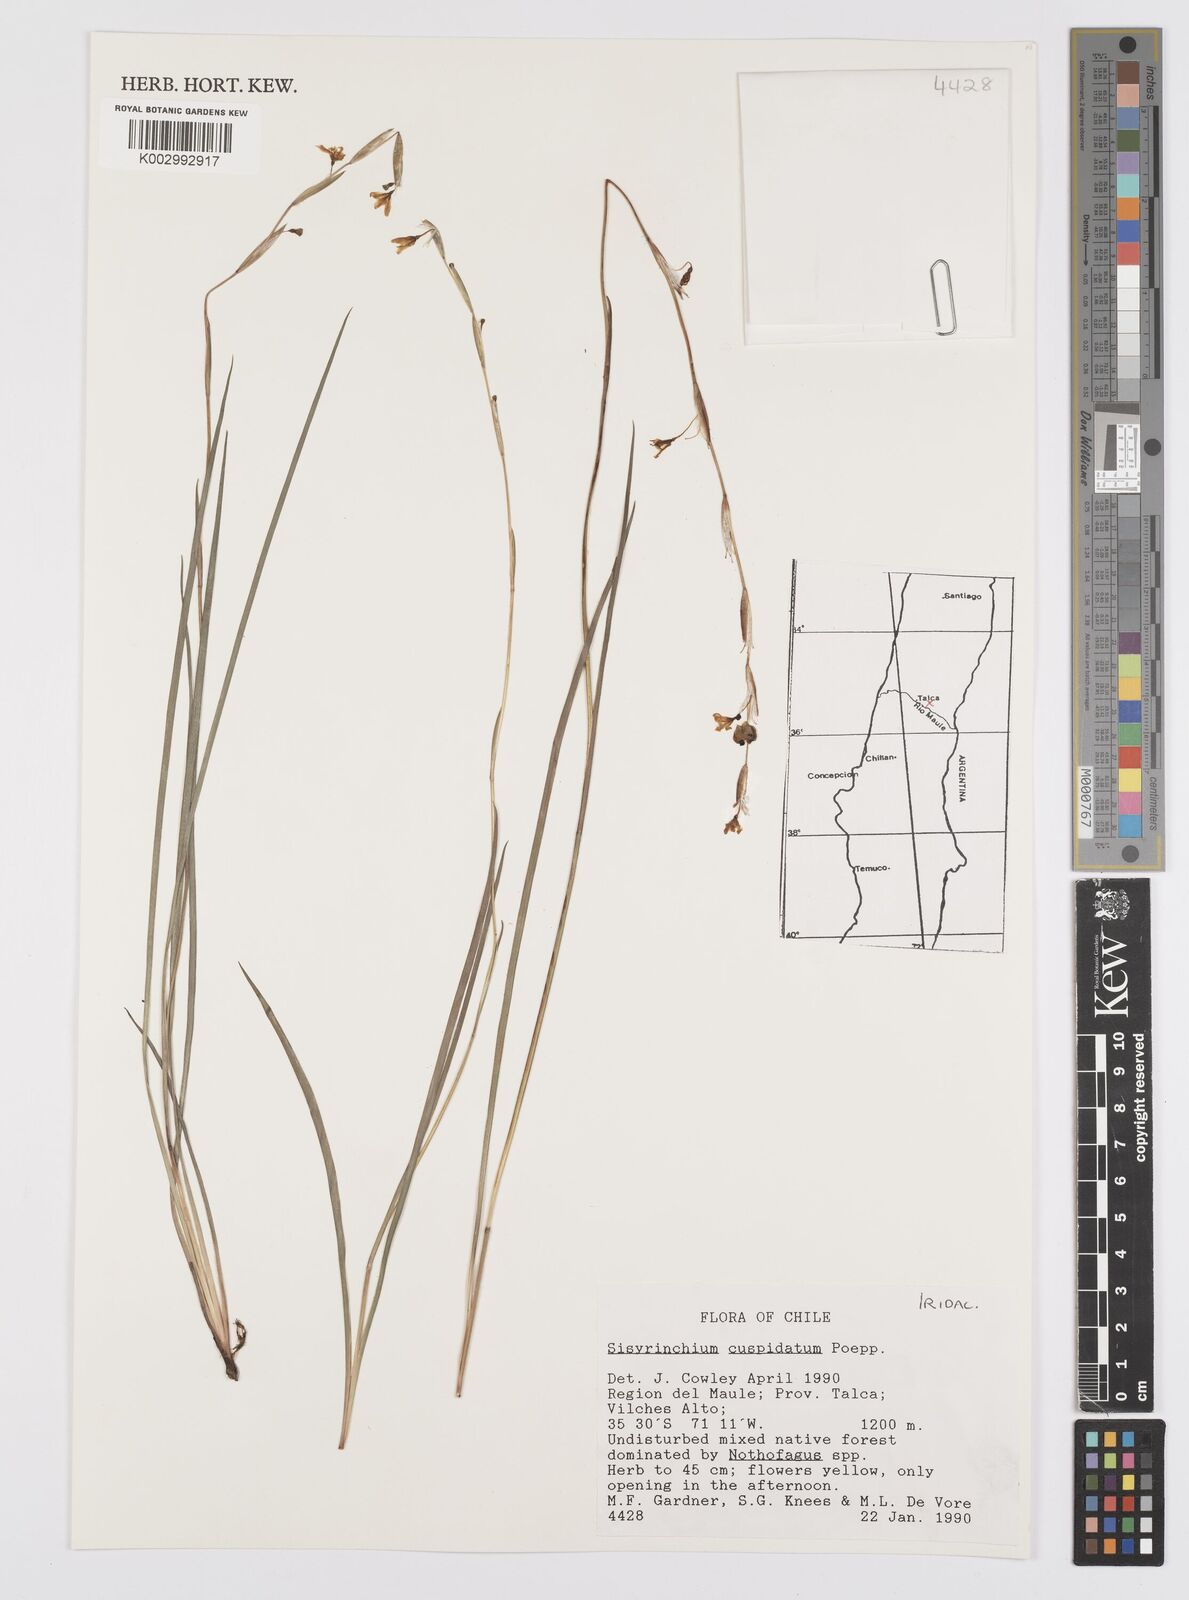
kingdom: Plantae
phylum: Tracheophyta
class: Liliopsida
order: Asparagales
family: Iridaceae
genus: Sisyrinchium
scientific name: Sisyrinchium cuspidatum
